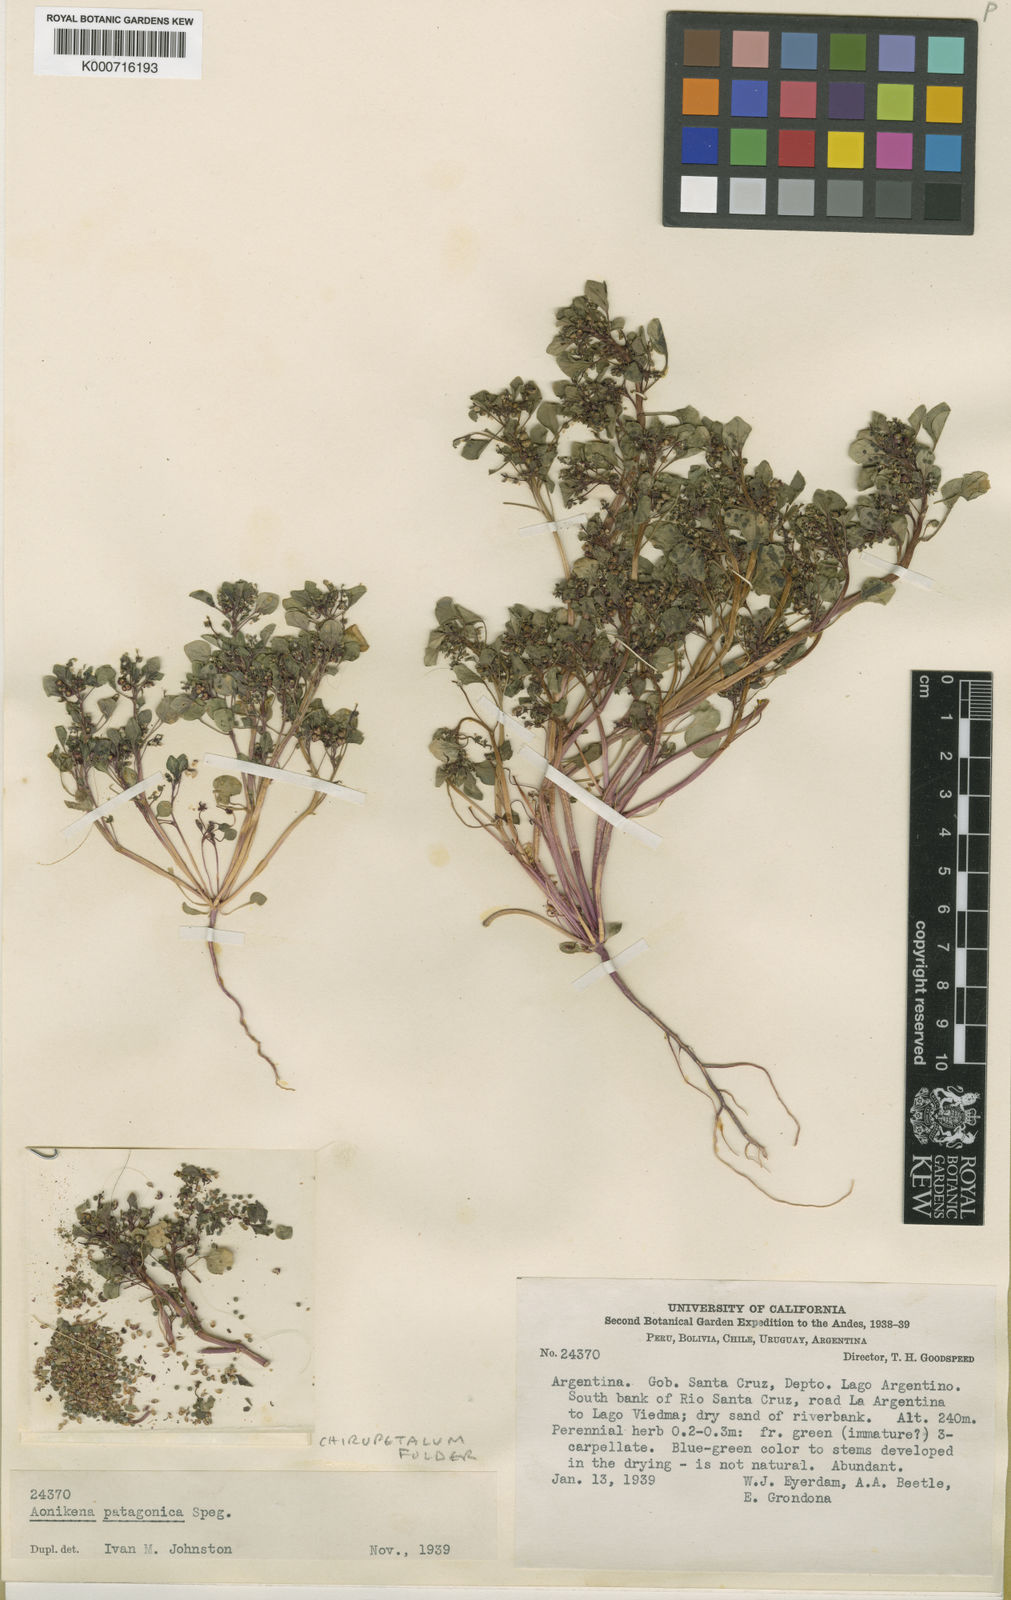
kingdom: Plantae
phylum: Tracheophyta
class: Magnoliopsida
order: Malpighiales
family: Euphorbiaceae
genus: Chiropetalum
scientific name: Chiropetalum patagonicum
